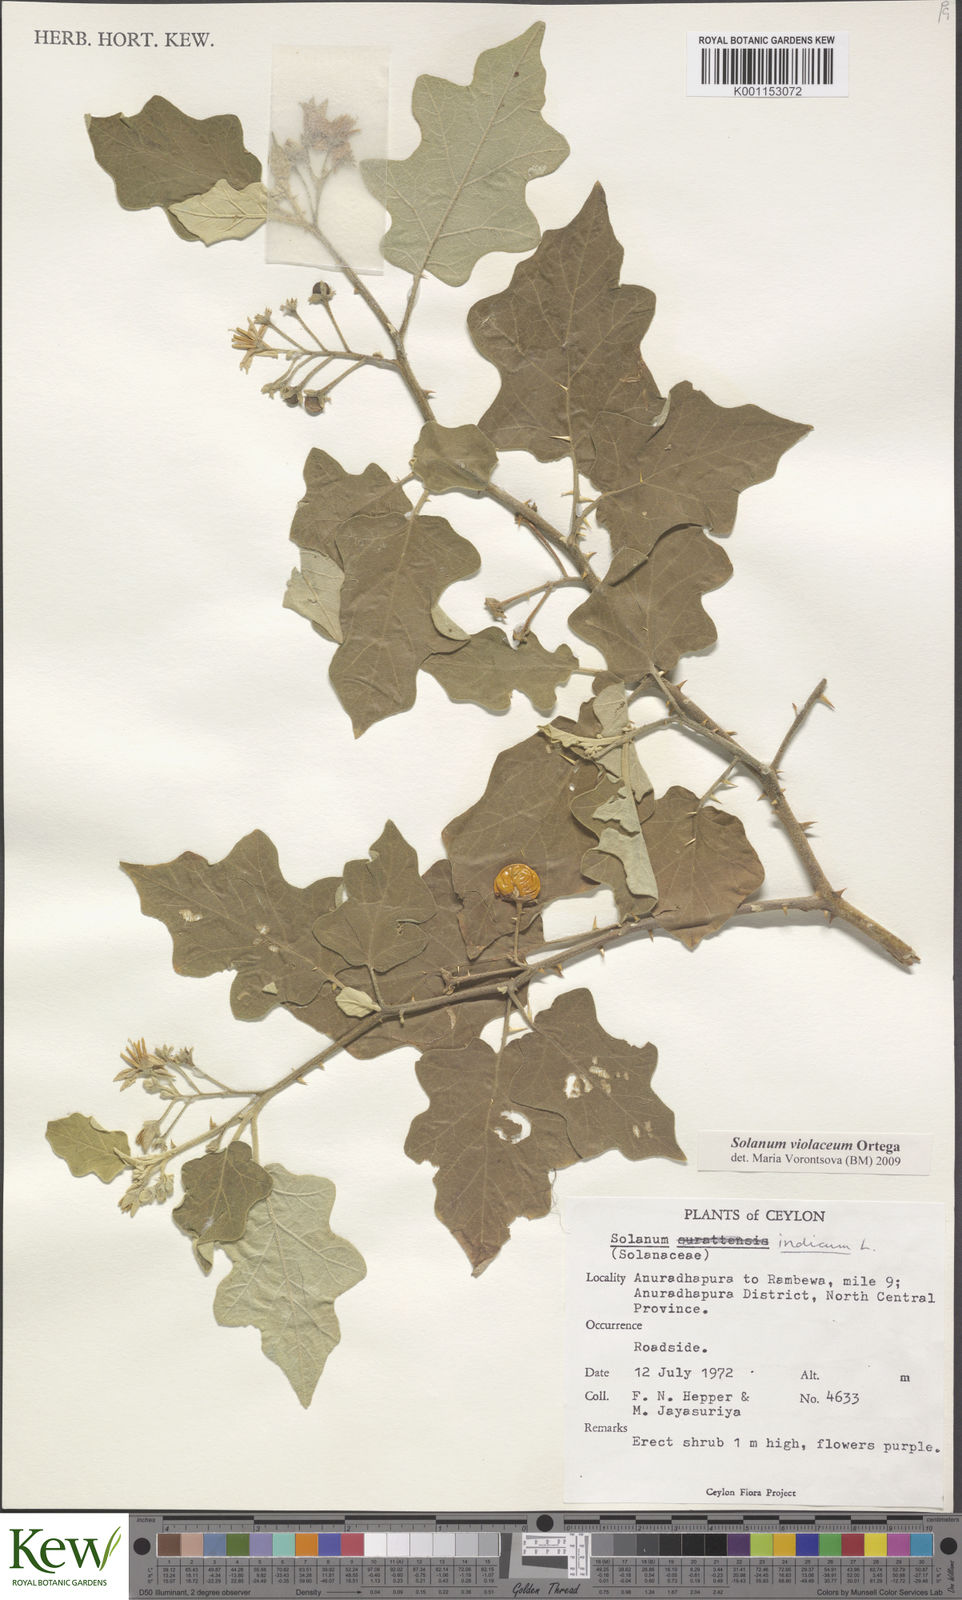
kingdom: Plantae
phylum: Tracheophyta
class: Magnoliopsida
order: Solanales
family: Solanaceae
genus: Solanum
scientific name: Solanum violaceum
